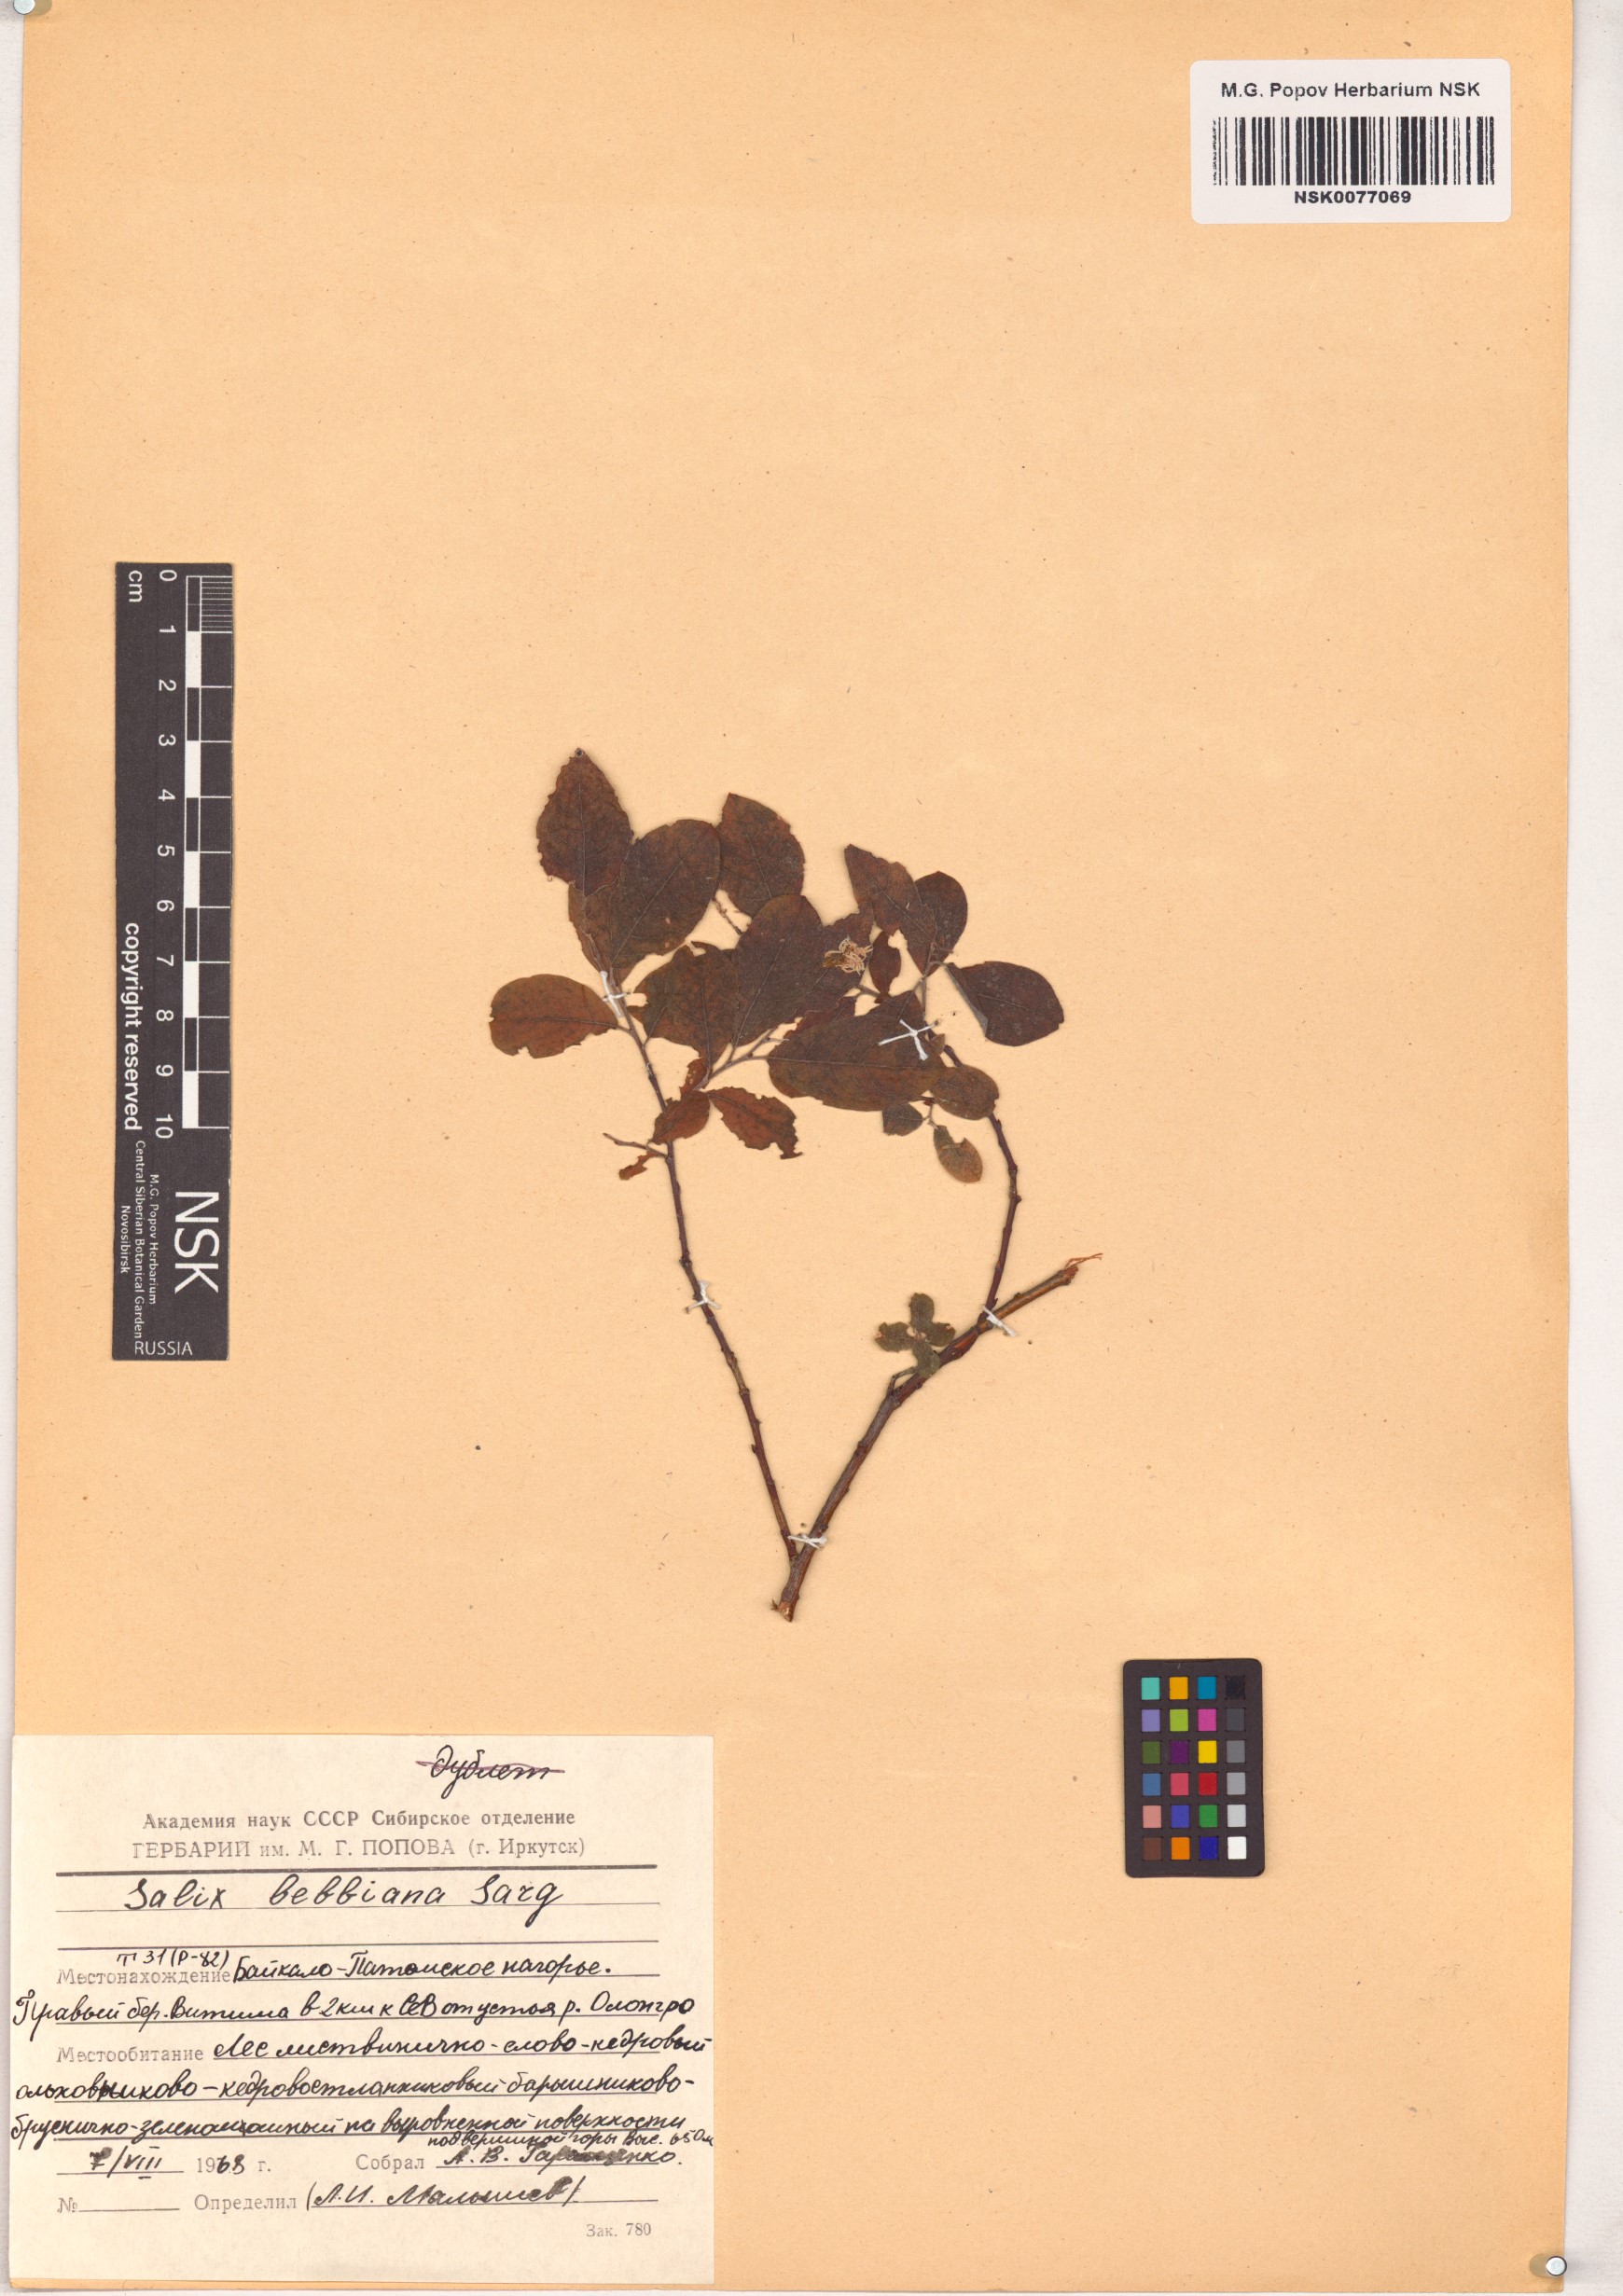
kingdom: Plantae
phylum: Tracheophyta
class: Magnoliopsida
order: Malpighiales
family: Salicaceae
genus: Salix
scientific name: Salix bebbiana
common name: Bebb's willow
